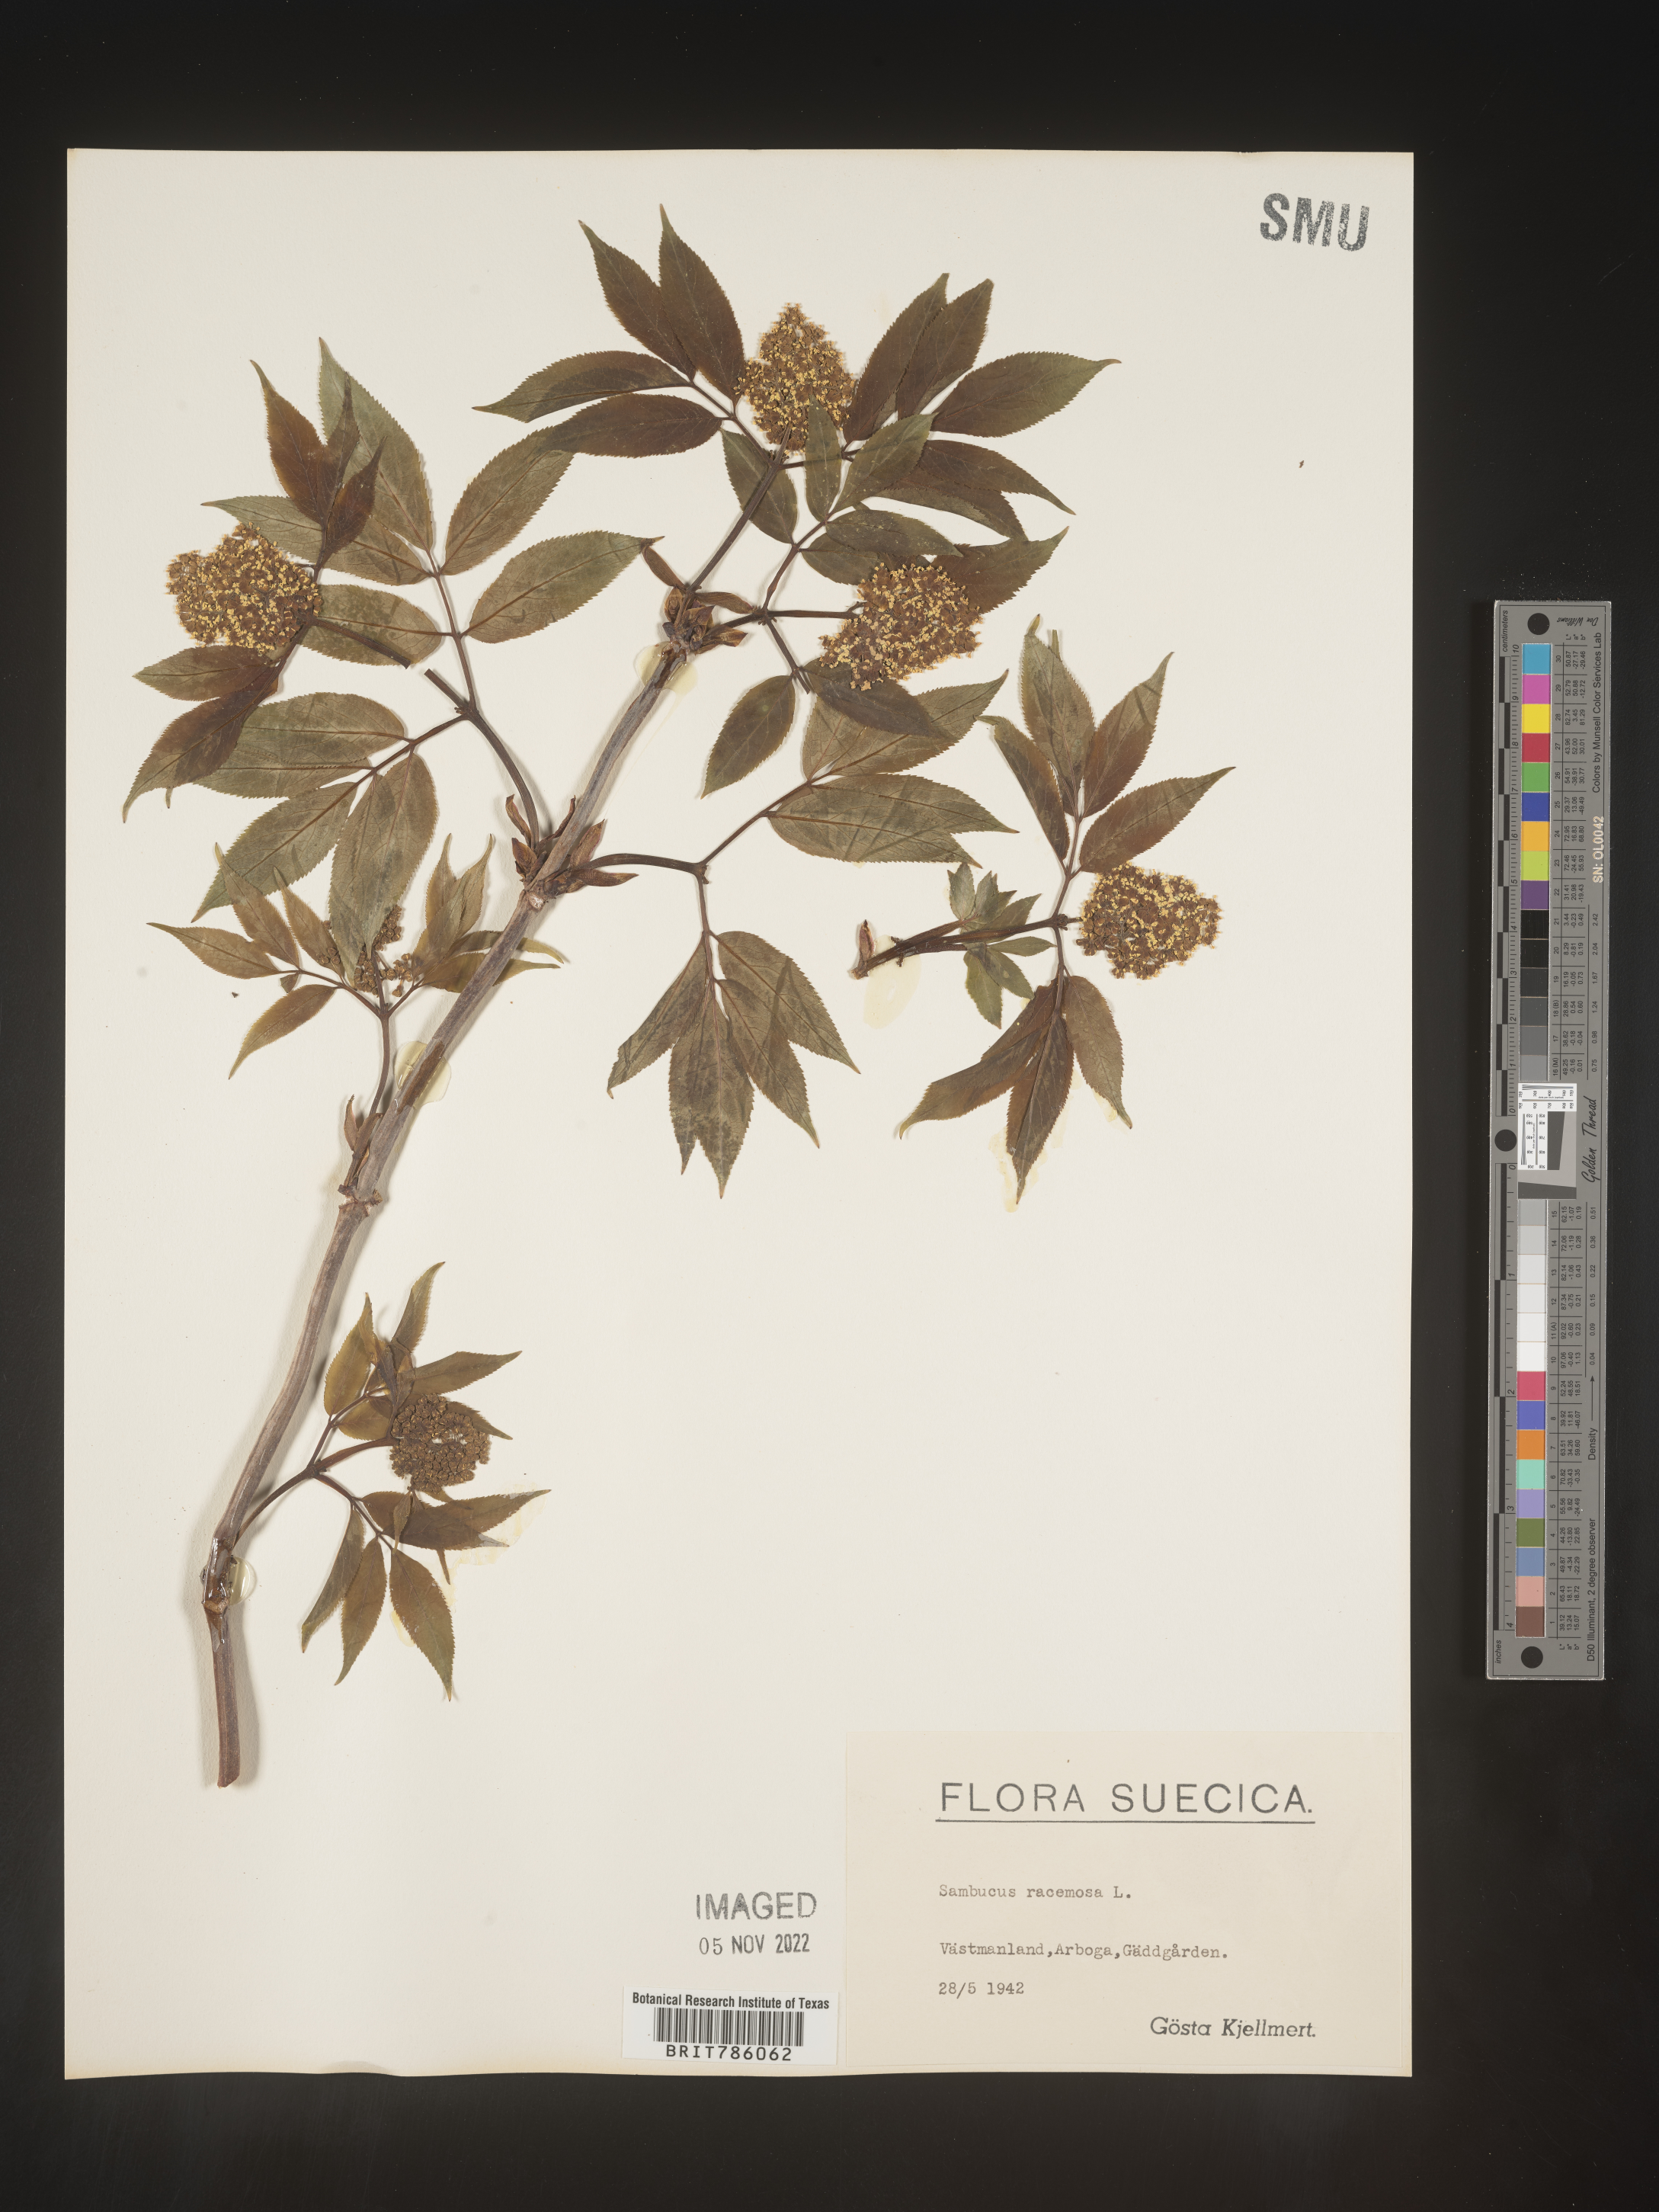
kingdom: Plantae
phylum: Tracheophyta
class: Magnoliopsida
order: Dipsacales
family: Viburnaceae
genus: Sambucus
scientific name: Sambucus
